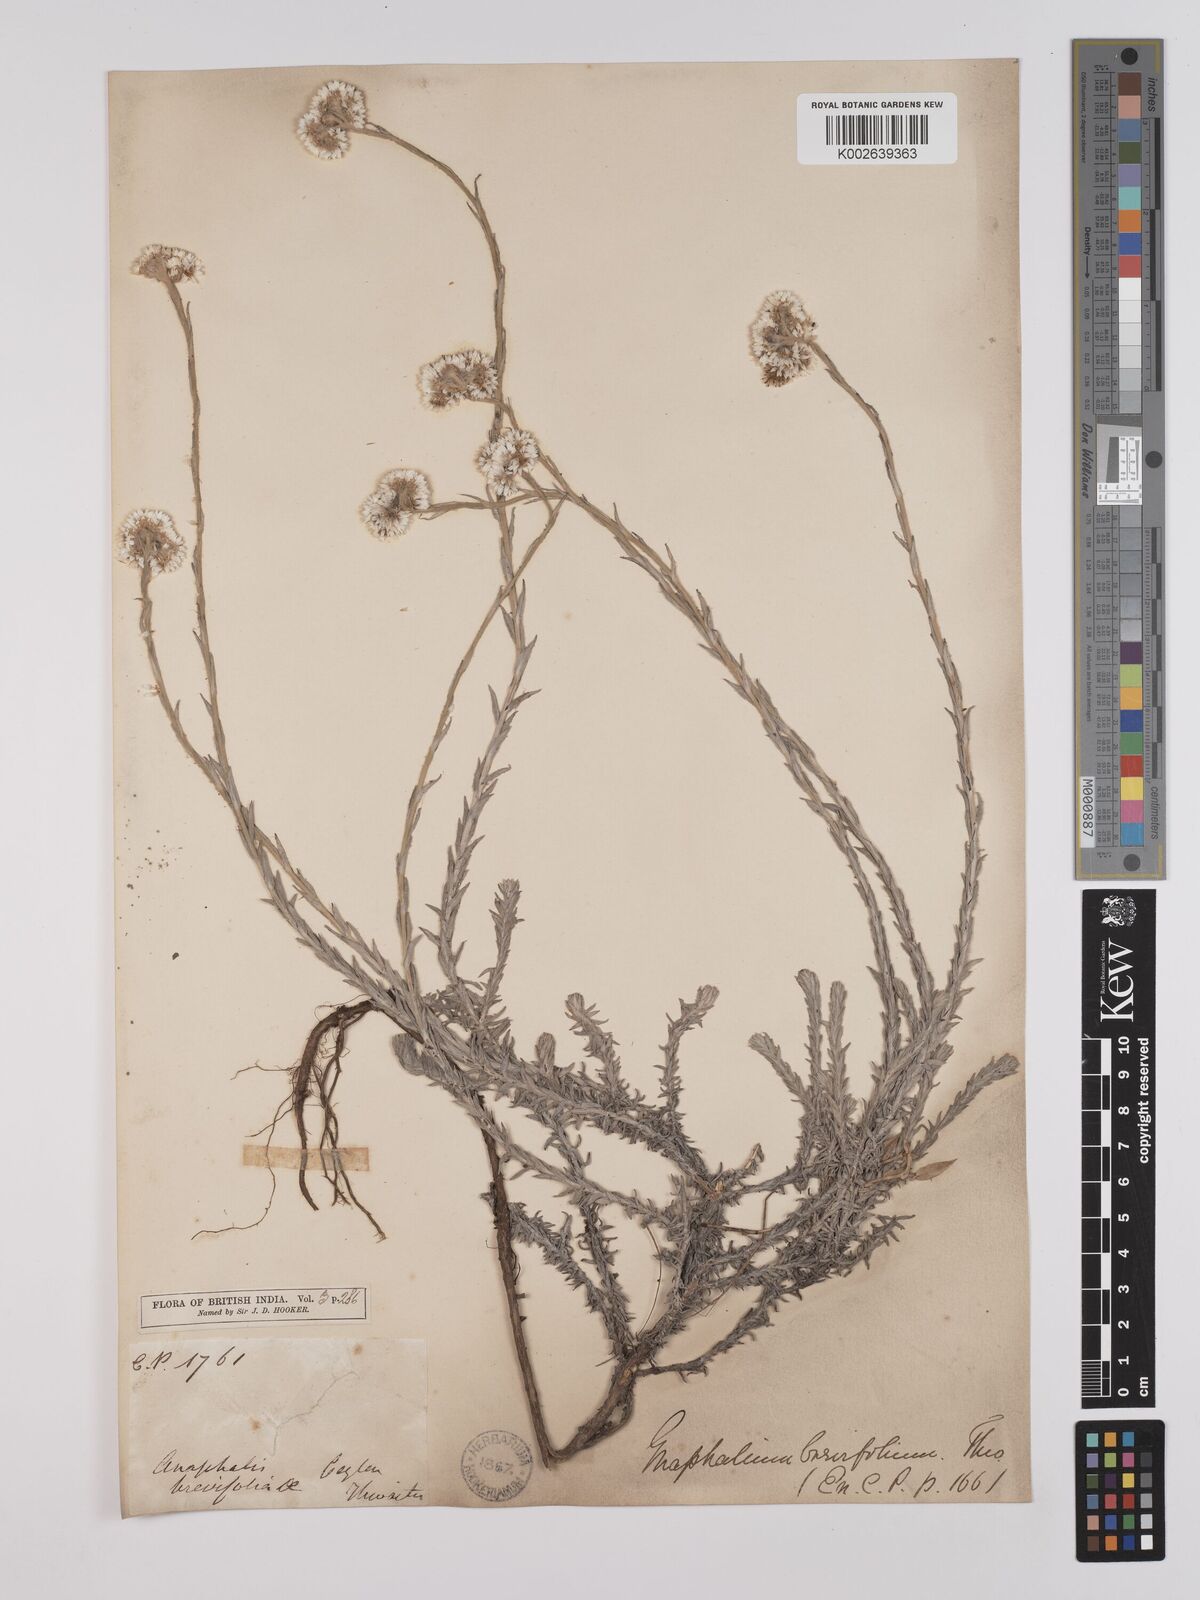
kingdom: Plantae
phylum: Tracheophyta
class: Magnoliopsida
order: Asterales
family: Asteraceae
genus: Anaphalis
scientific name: Anaphalis brevifolia
